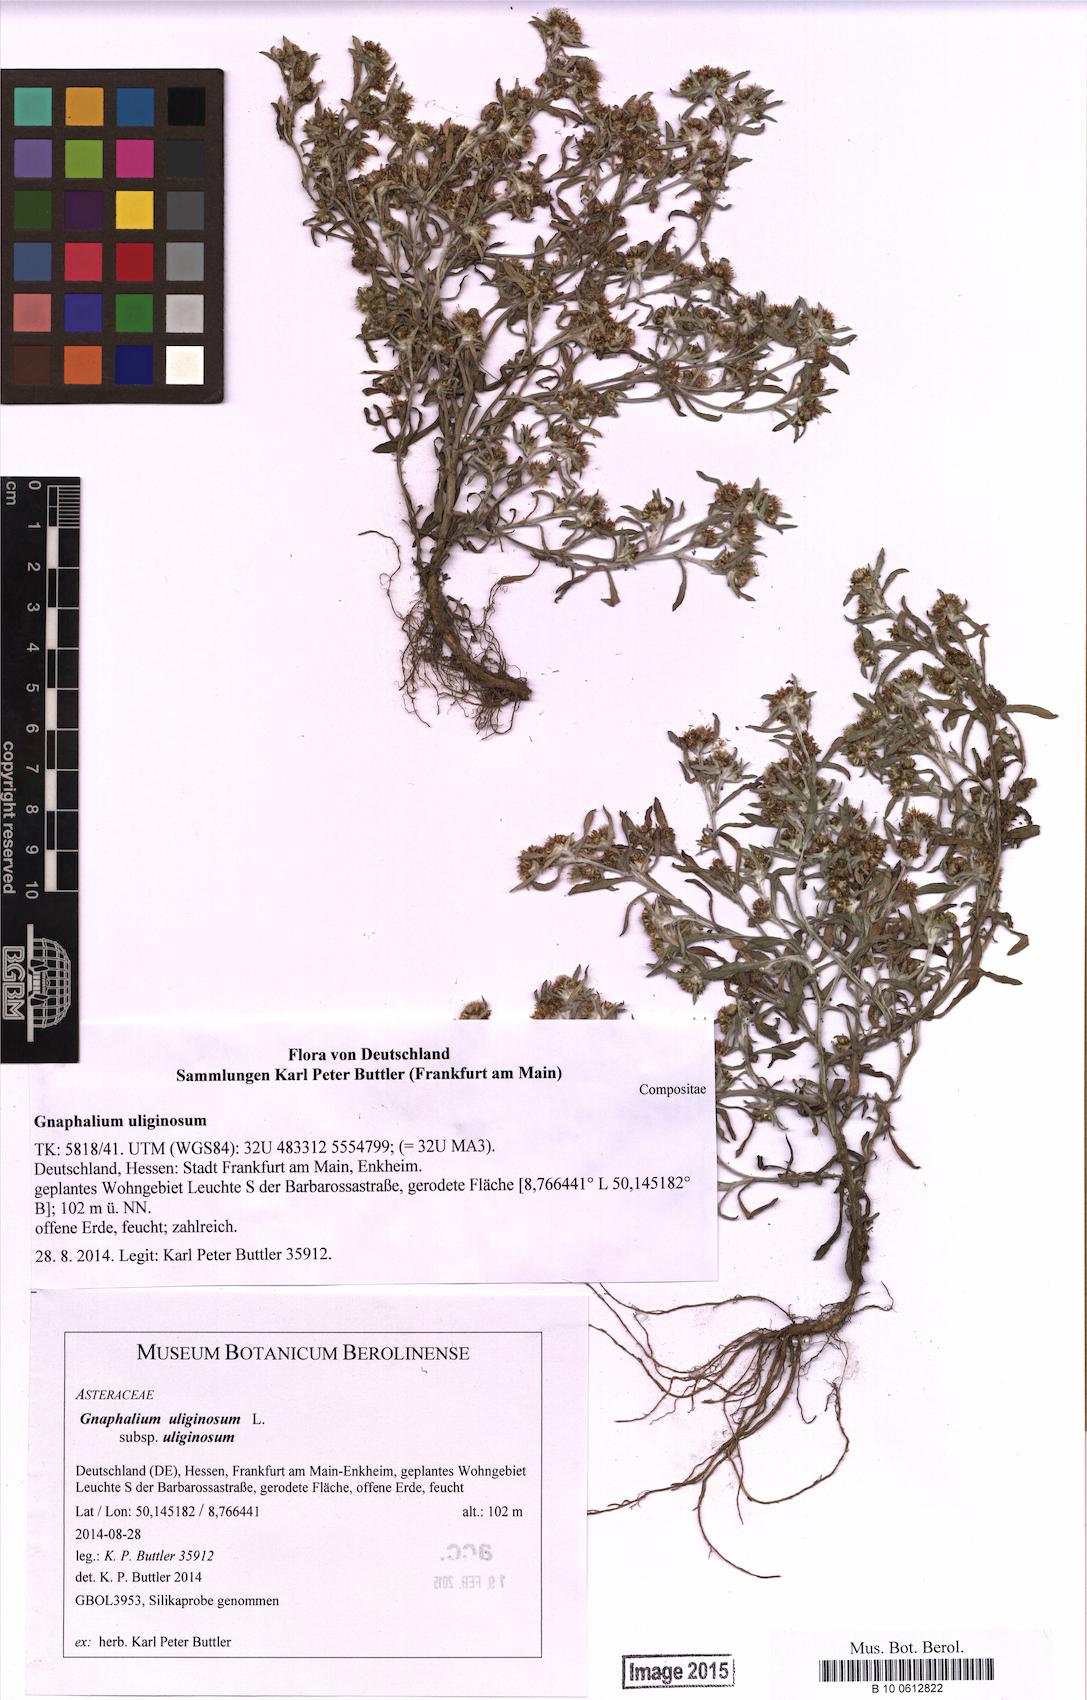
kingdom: Plantae
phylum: Tracheophyta
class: Magnoliopsida
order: Asterales
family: Asteraceae
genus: Gnaphalium
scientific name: Gnaphalium uliginosum
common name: Marsh cudweed
